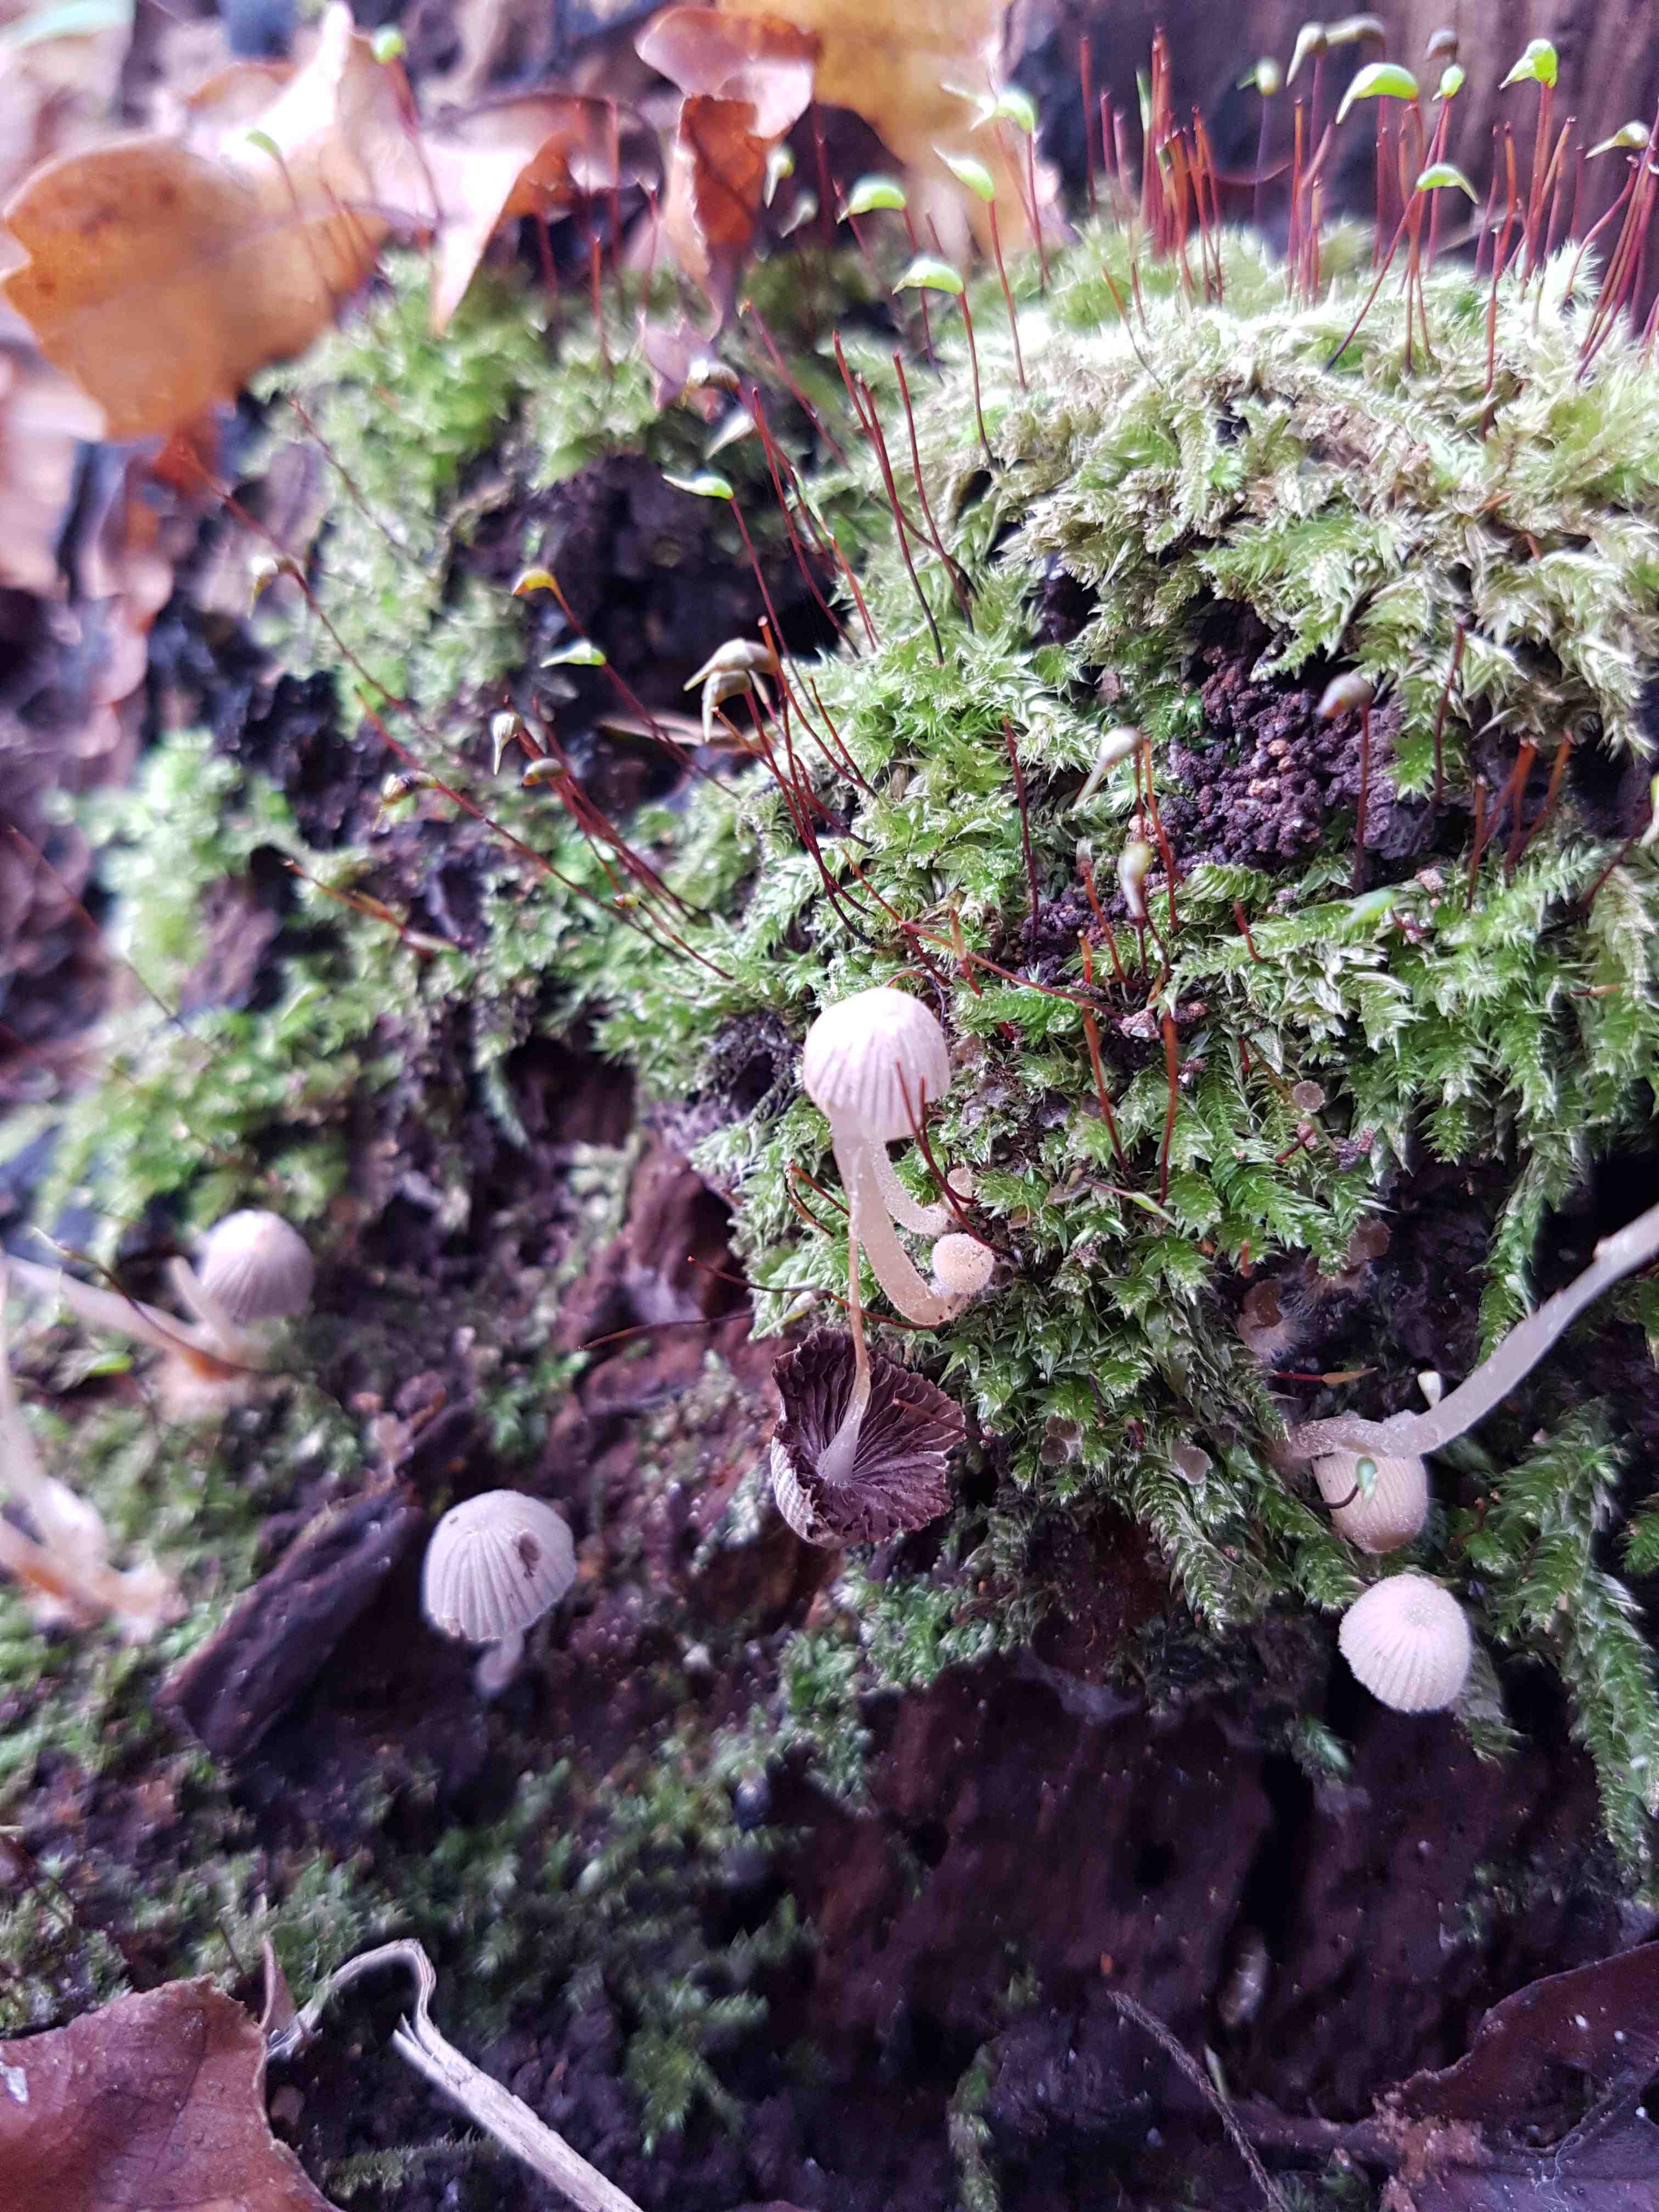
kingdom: Fungi
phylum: Basidiomycota
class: Agaricomycetes
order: Agaricales
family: Psathyrellaceae
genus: Coprinellus
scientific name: Coprinellus disseminatus
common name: bredsået blækhat
